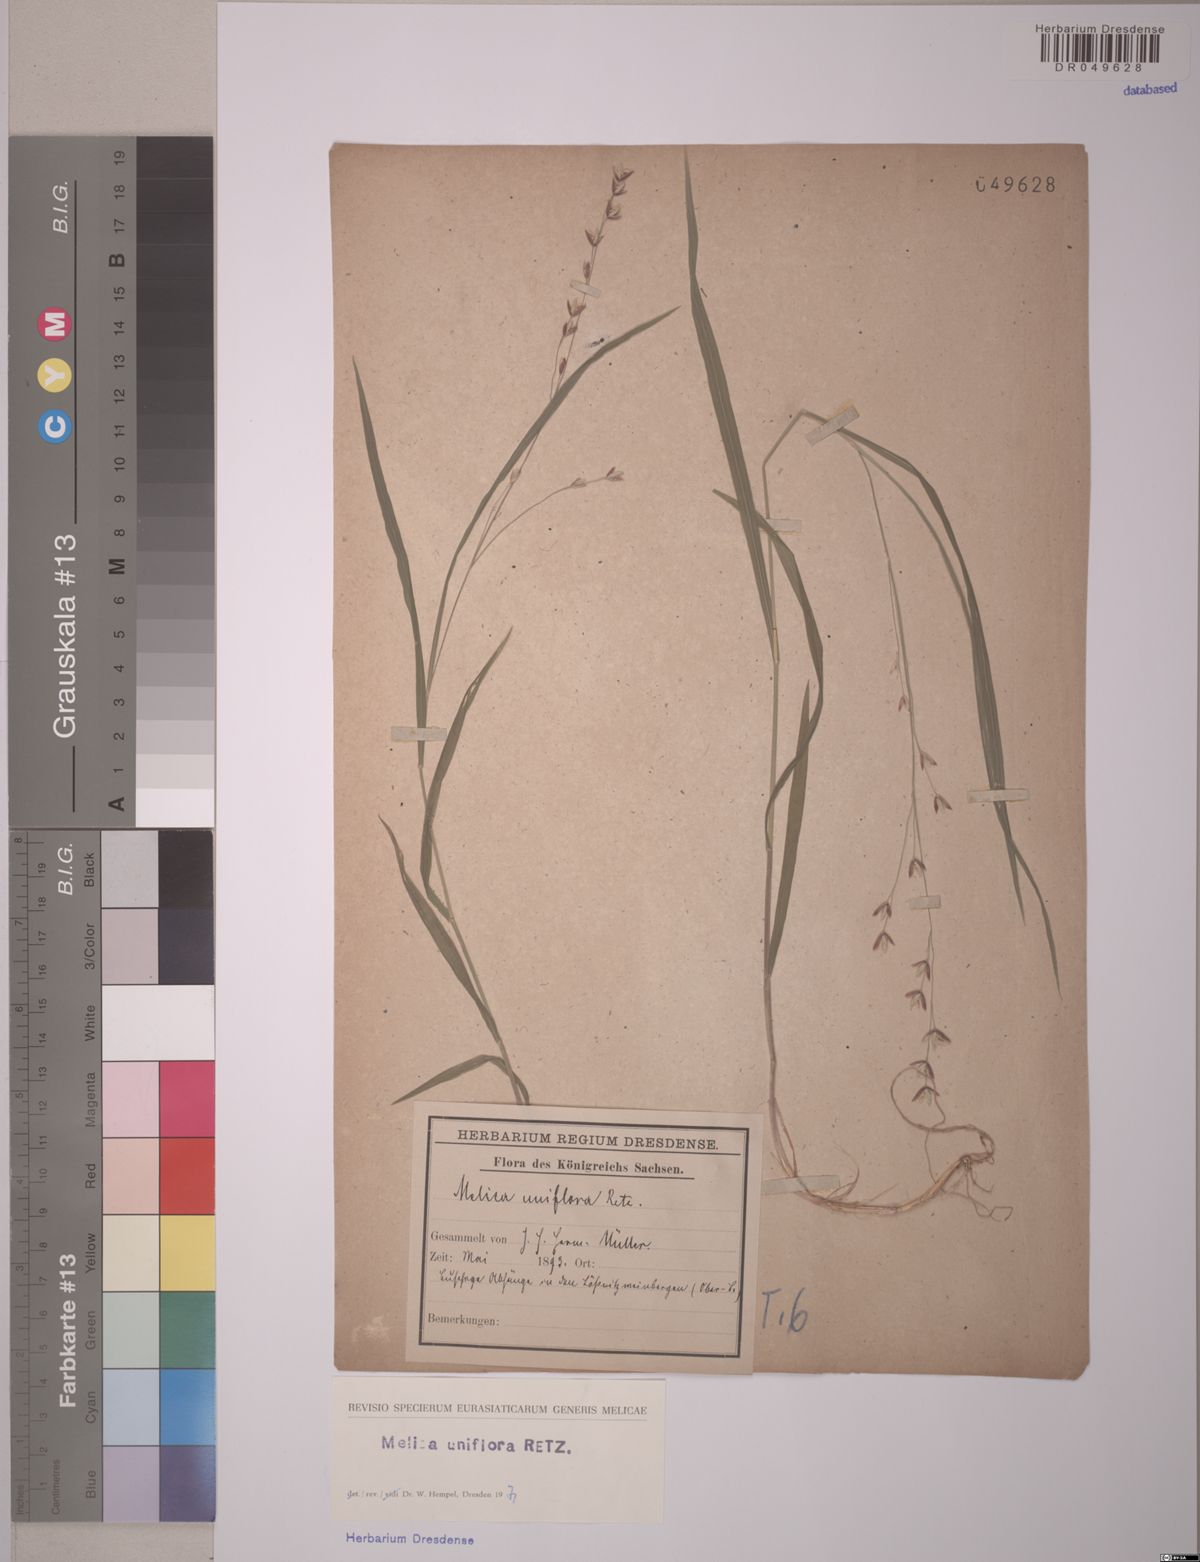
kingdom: Plantae
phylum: Tracheophyta
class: Liliopsida
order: Poales
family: Poaceae
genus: Melica
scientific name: Melica uniflora
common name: Wood melick
